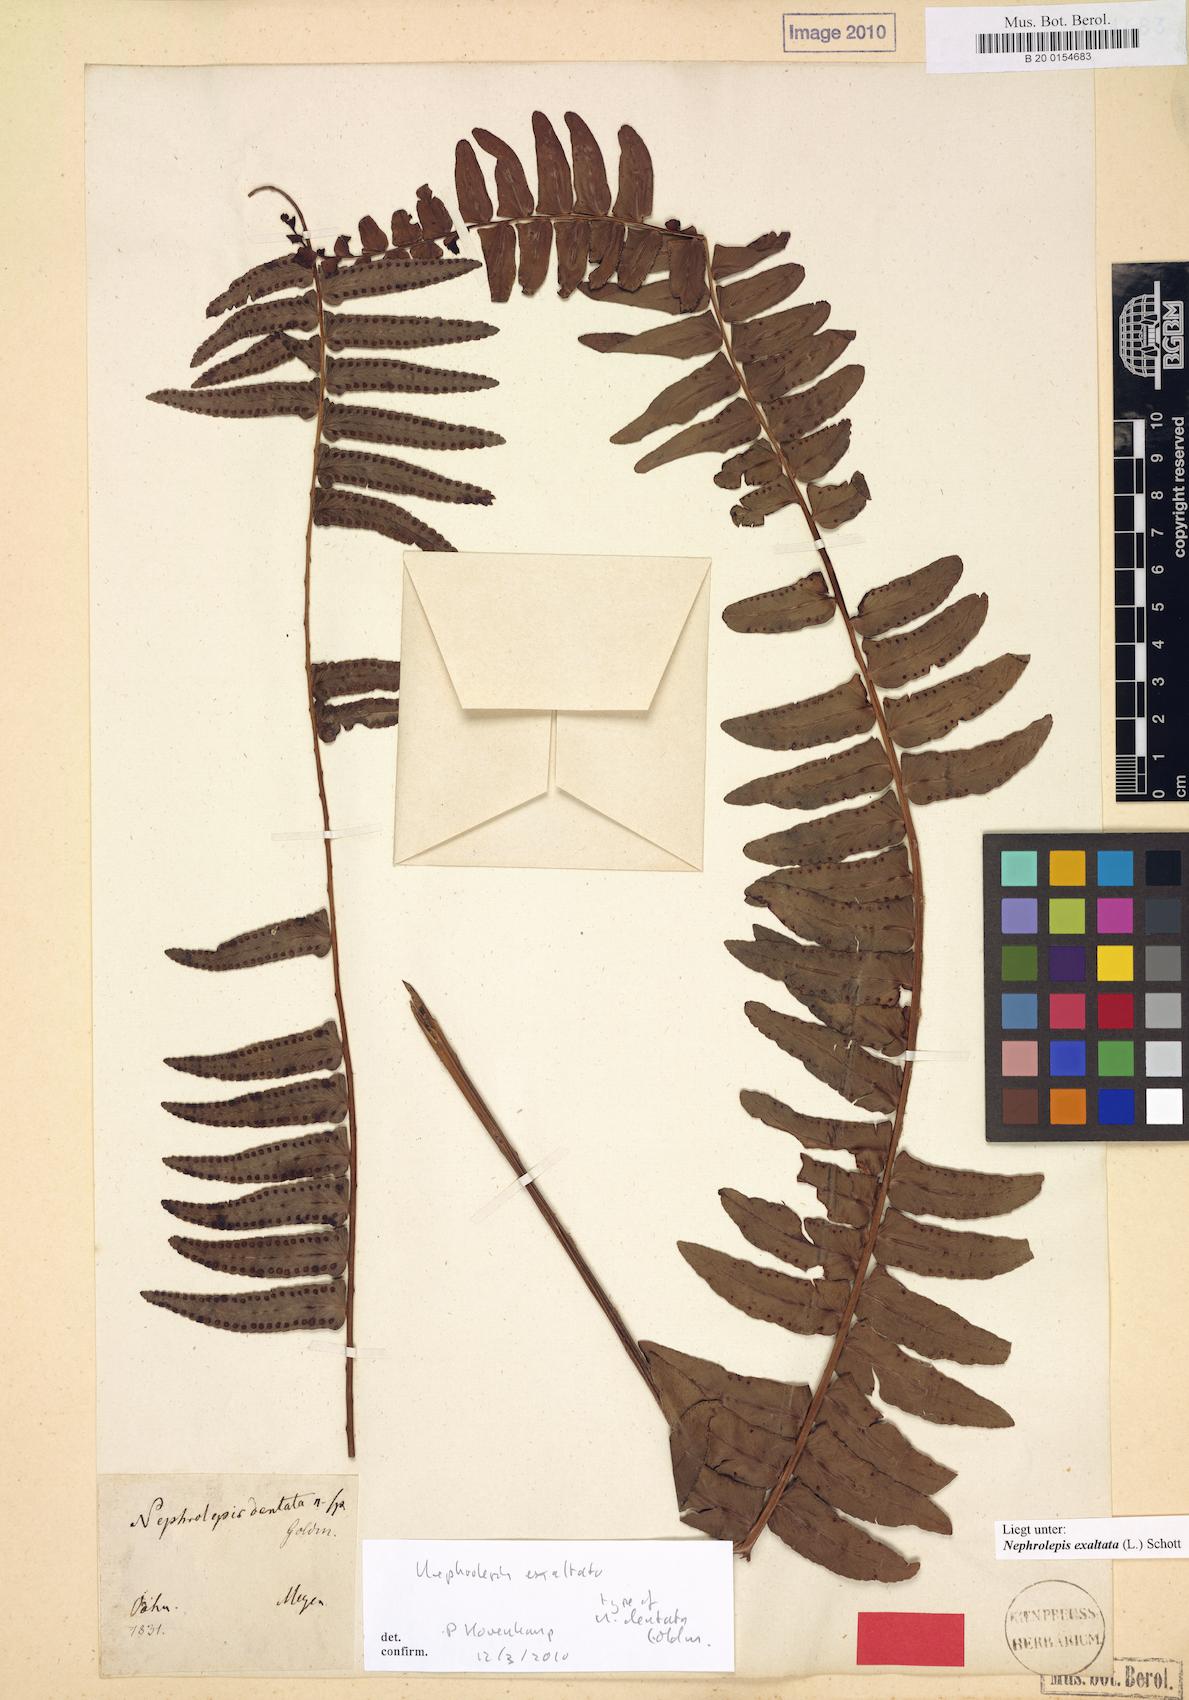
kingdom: Plantae
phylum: Tracheophyta
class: Polypodiopsida
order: Polypodiales
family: Nephrolepidaceae
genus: Nephrolepis
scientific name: Nephrolepis exaltata
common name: Sword fern
